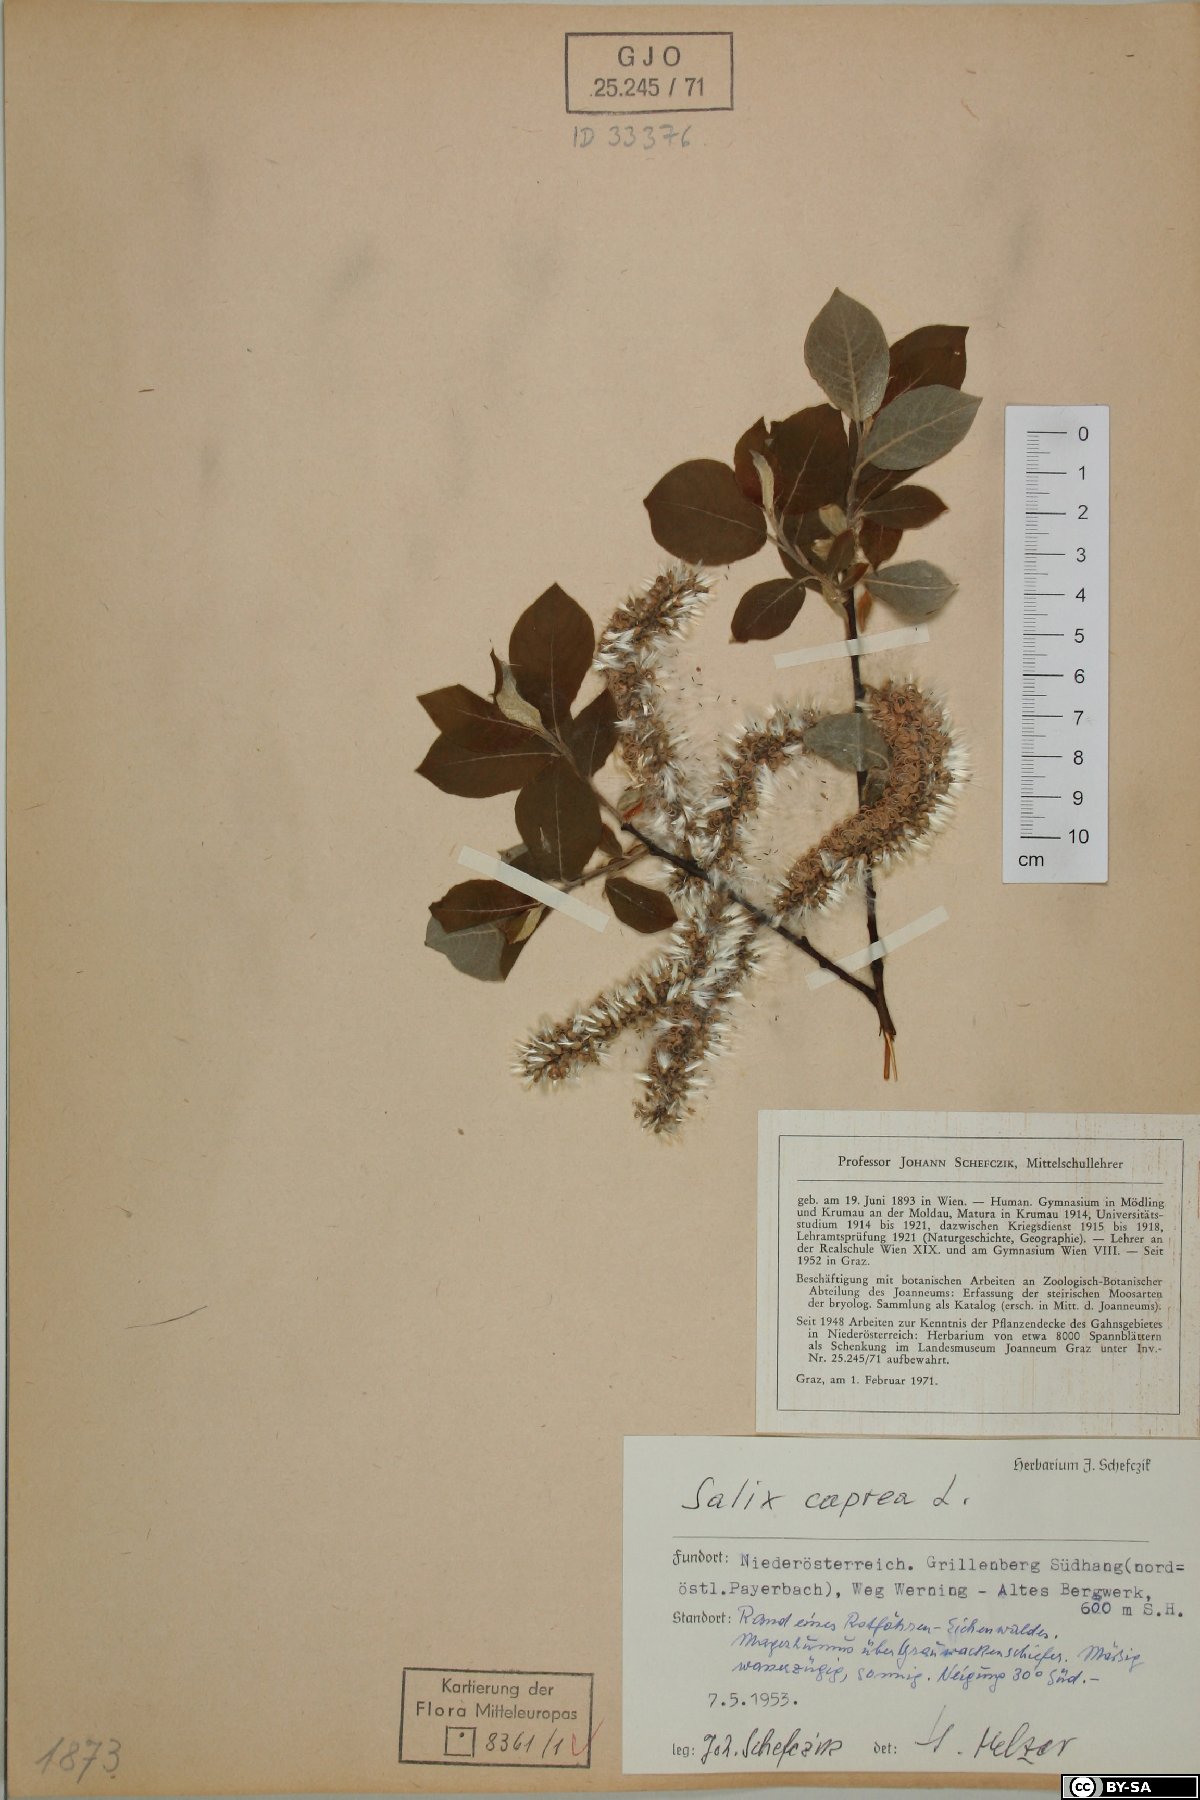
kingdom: Plantae
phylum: Tracheophyta
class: Magnoliopsida
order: Malpighiales
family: Salicaceae
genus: Salix
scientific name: Salix caprea
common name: Goat willow
